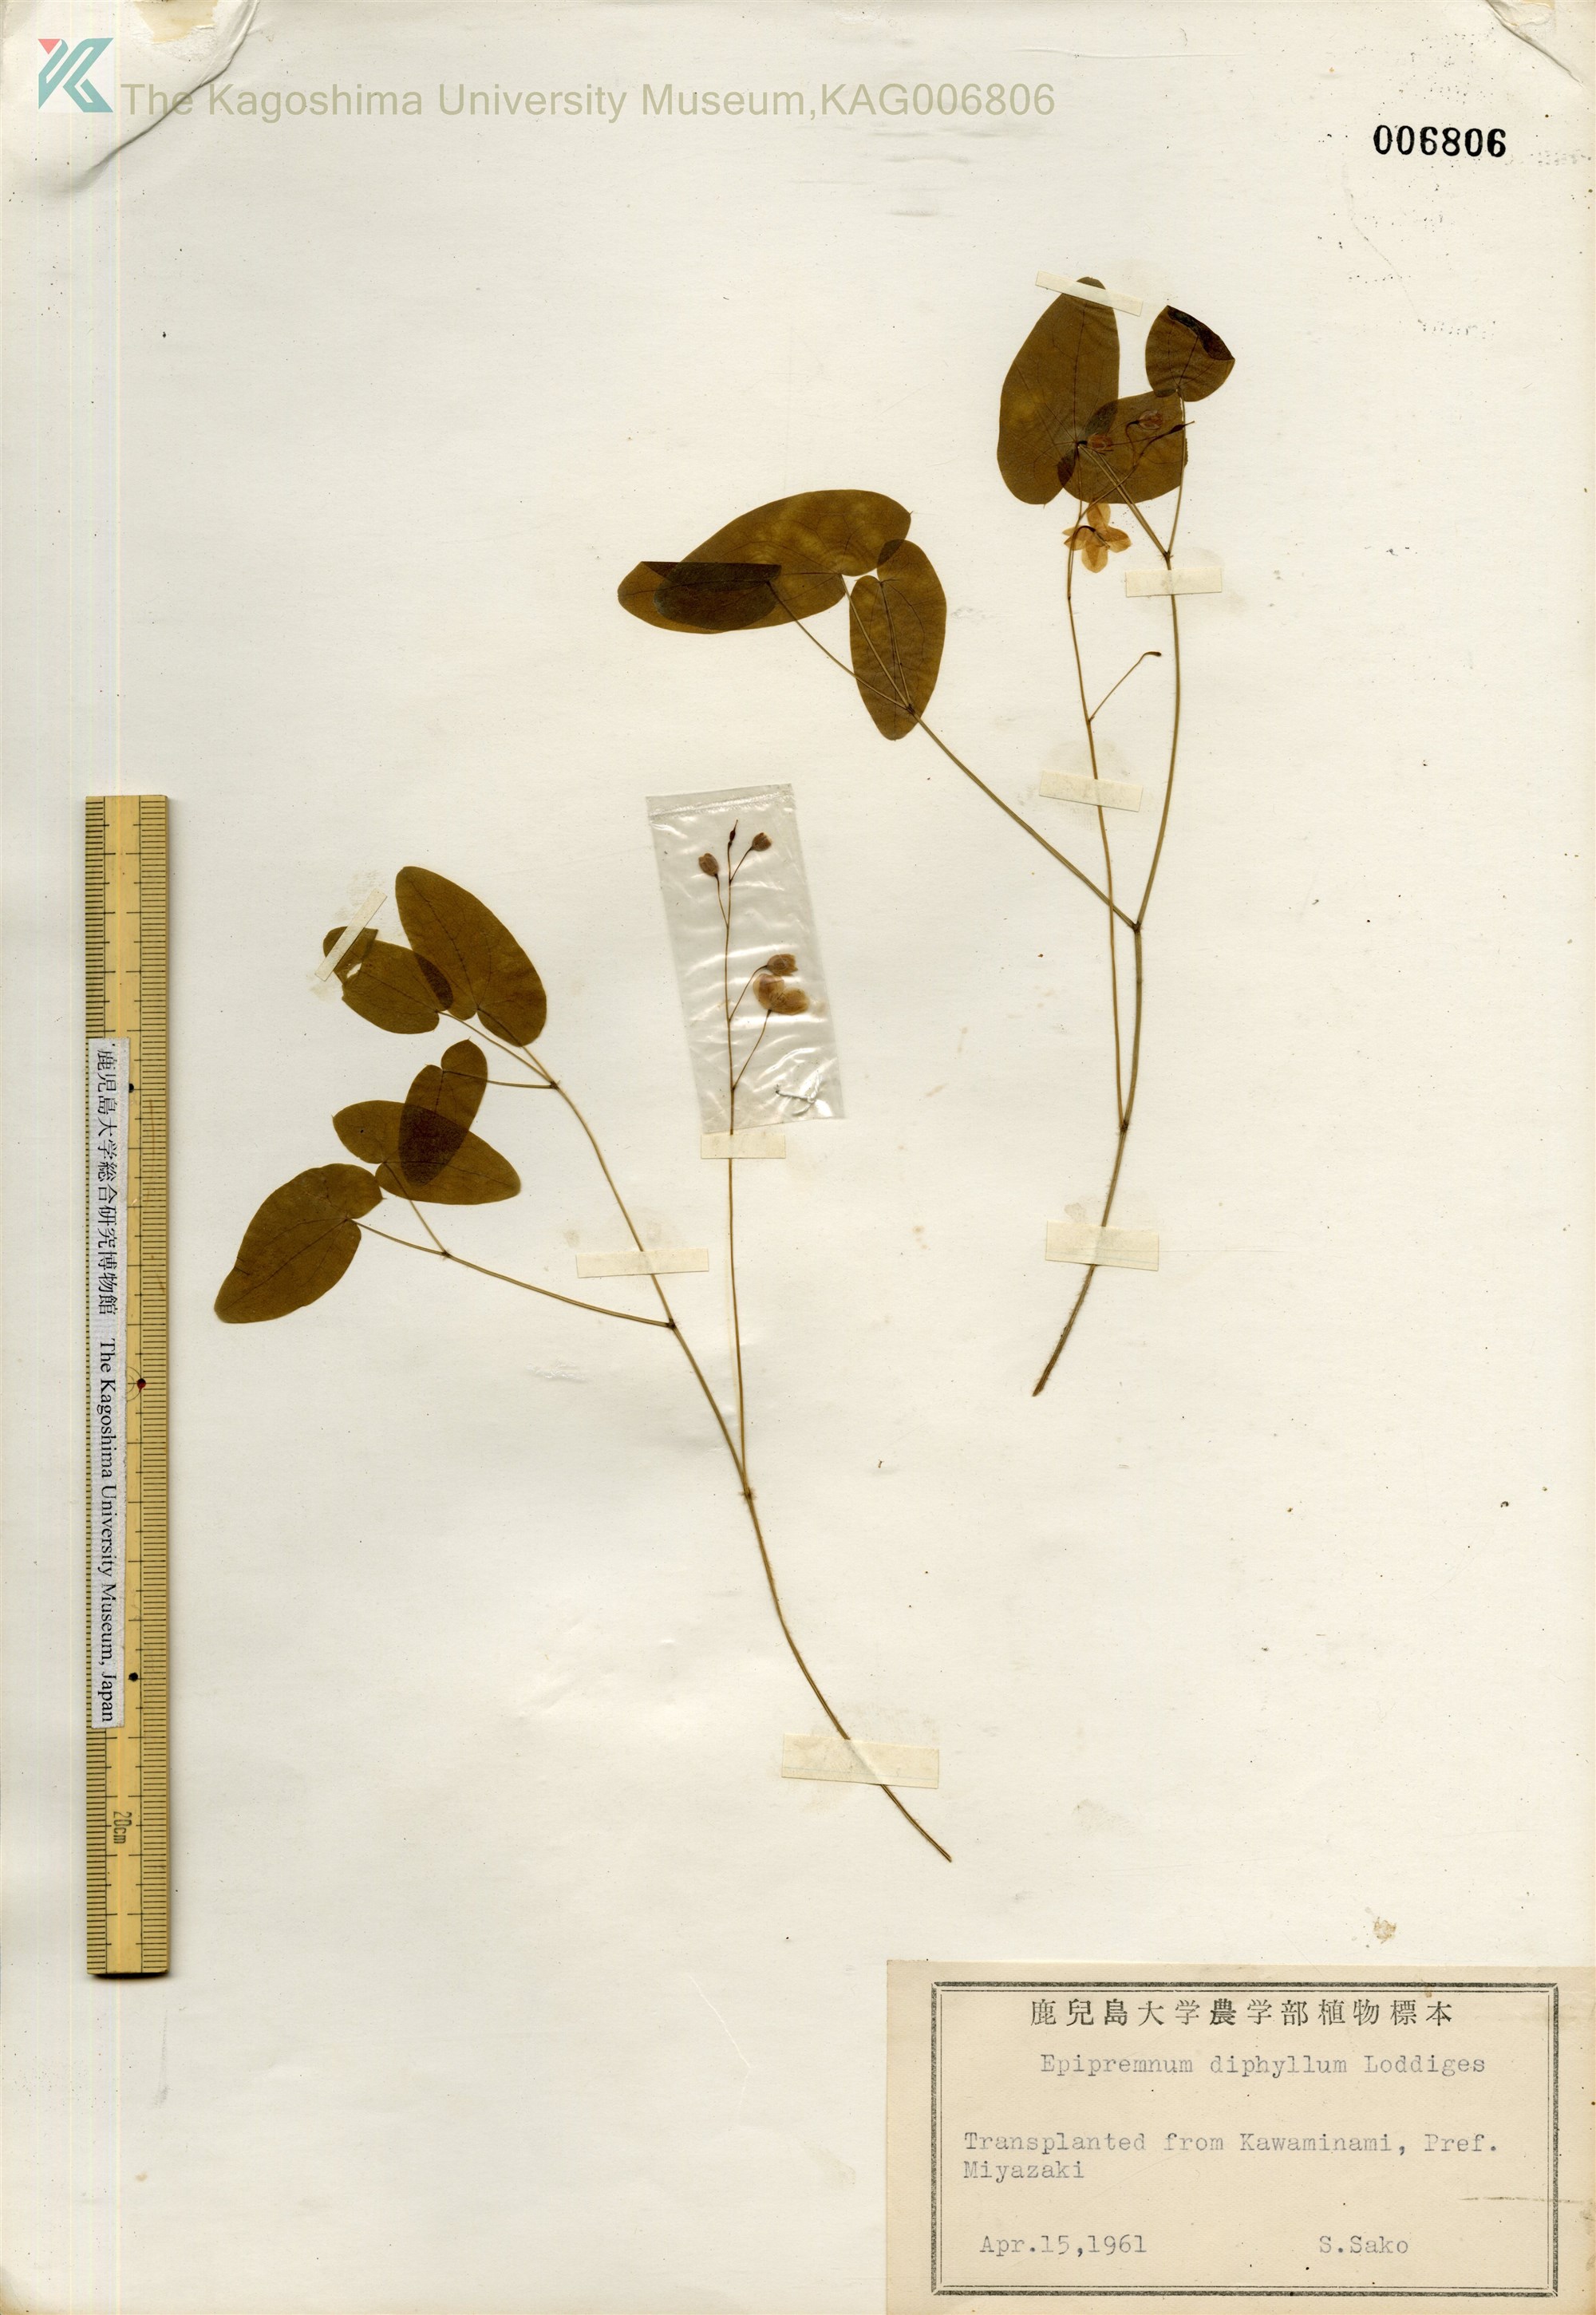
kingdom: Plantae
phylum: Tracheophyta
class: Magnoliopsida
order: Ranunculales
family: Berberidaceae
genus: Epimedium
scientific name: Epimedium diphyllum
